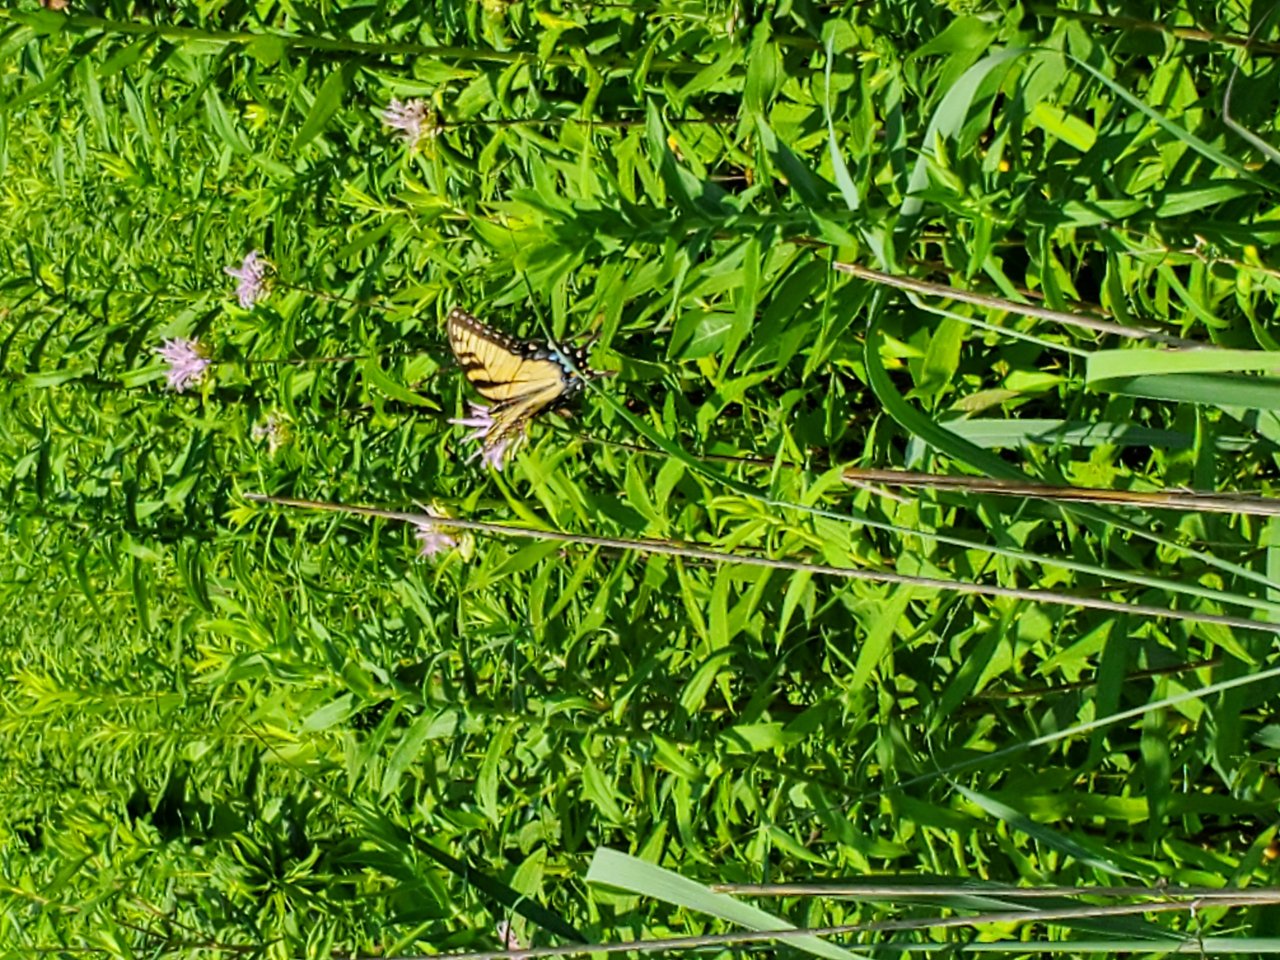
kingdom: Animalia
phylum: Arthropoda
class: Insecta
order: Lepidoptera
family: Papilionidae
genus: Pterourus
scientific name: Pterourus glaucus
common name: Eastern Tiger Swallowtail
